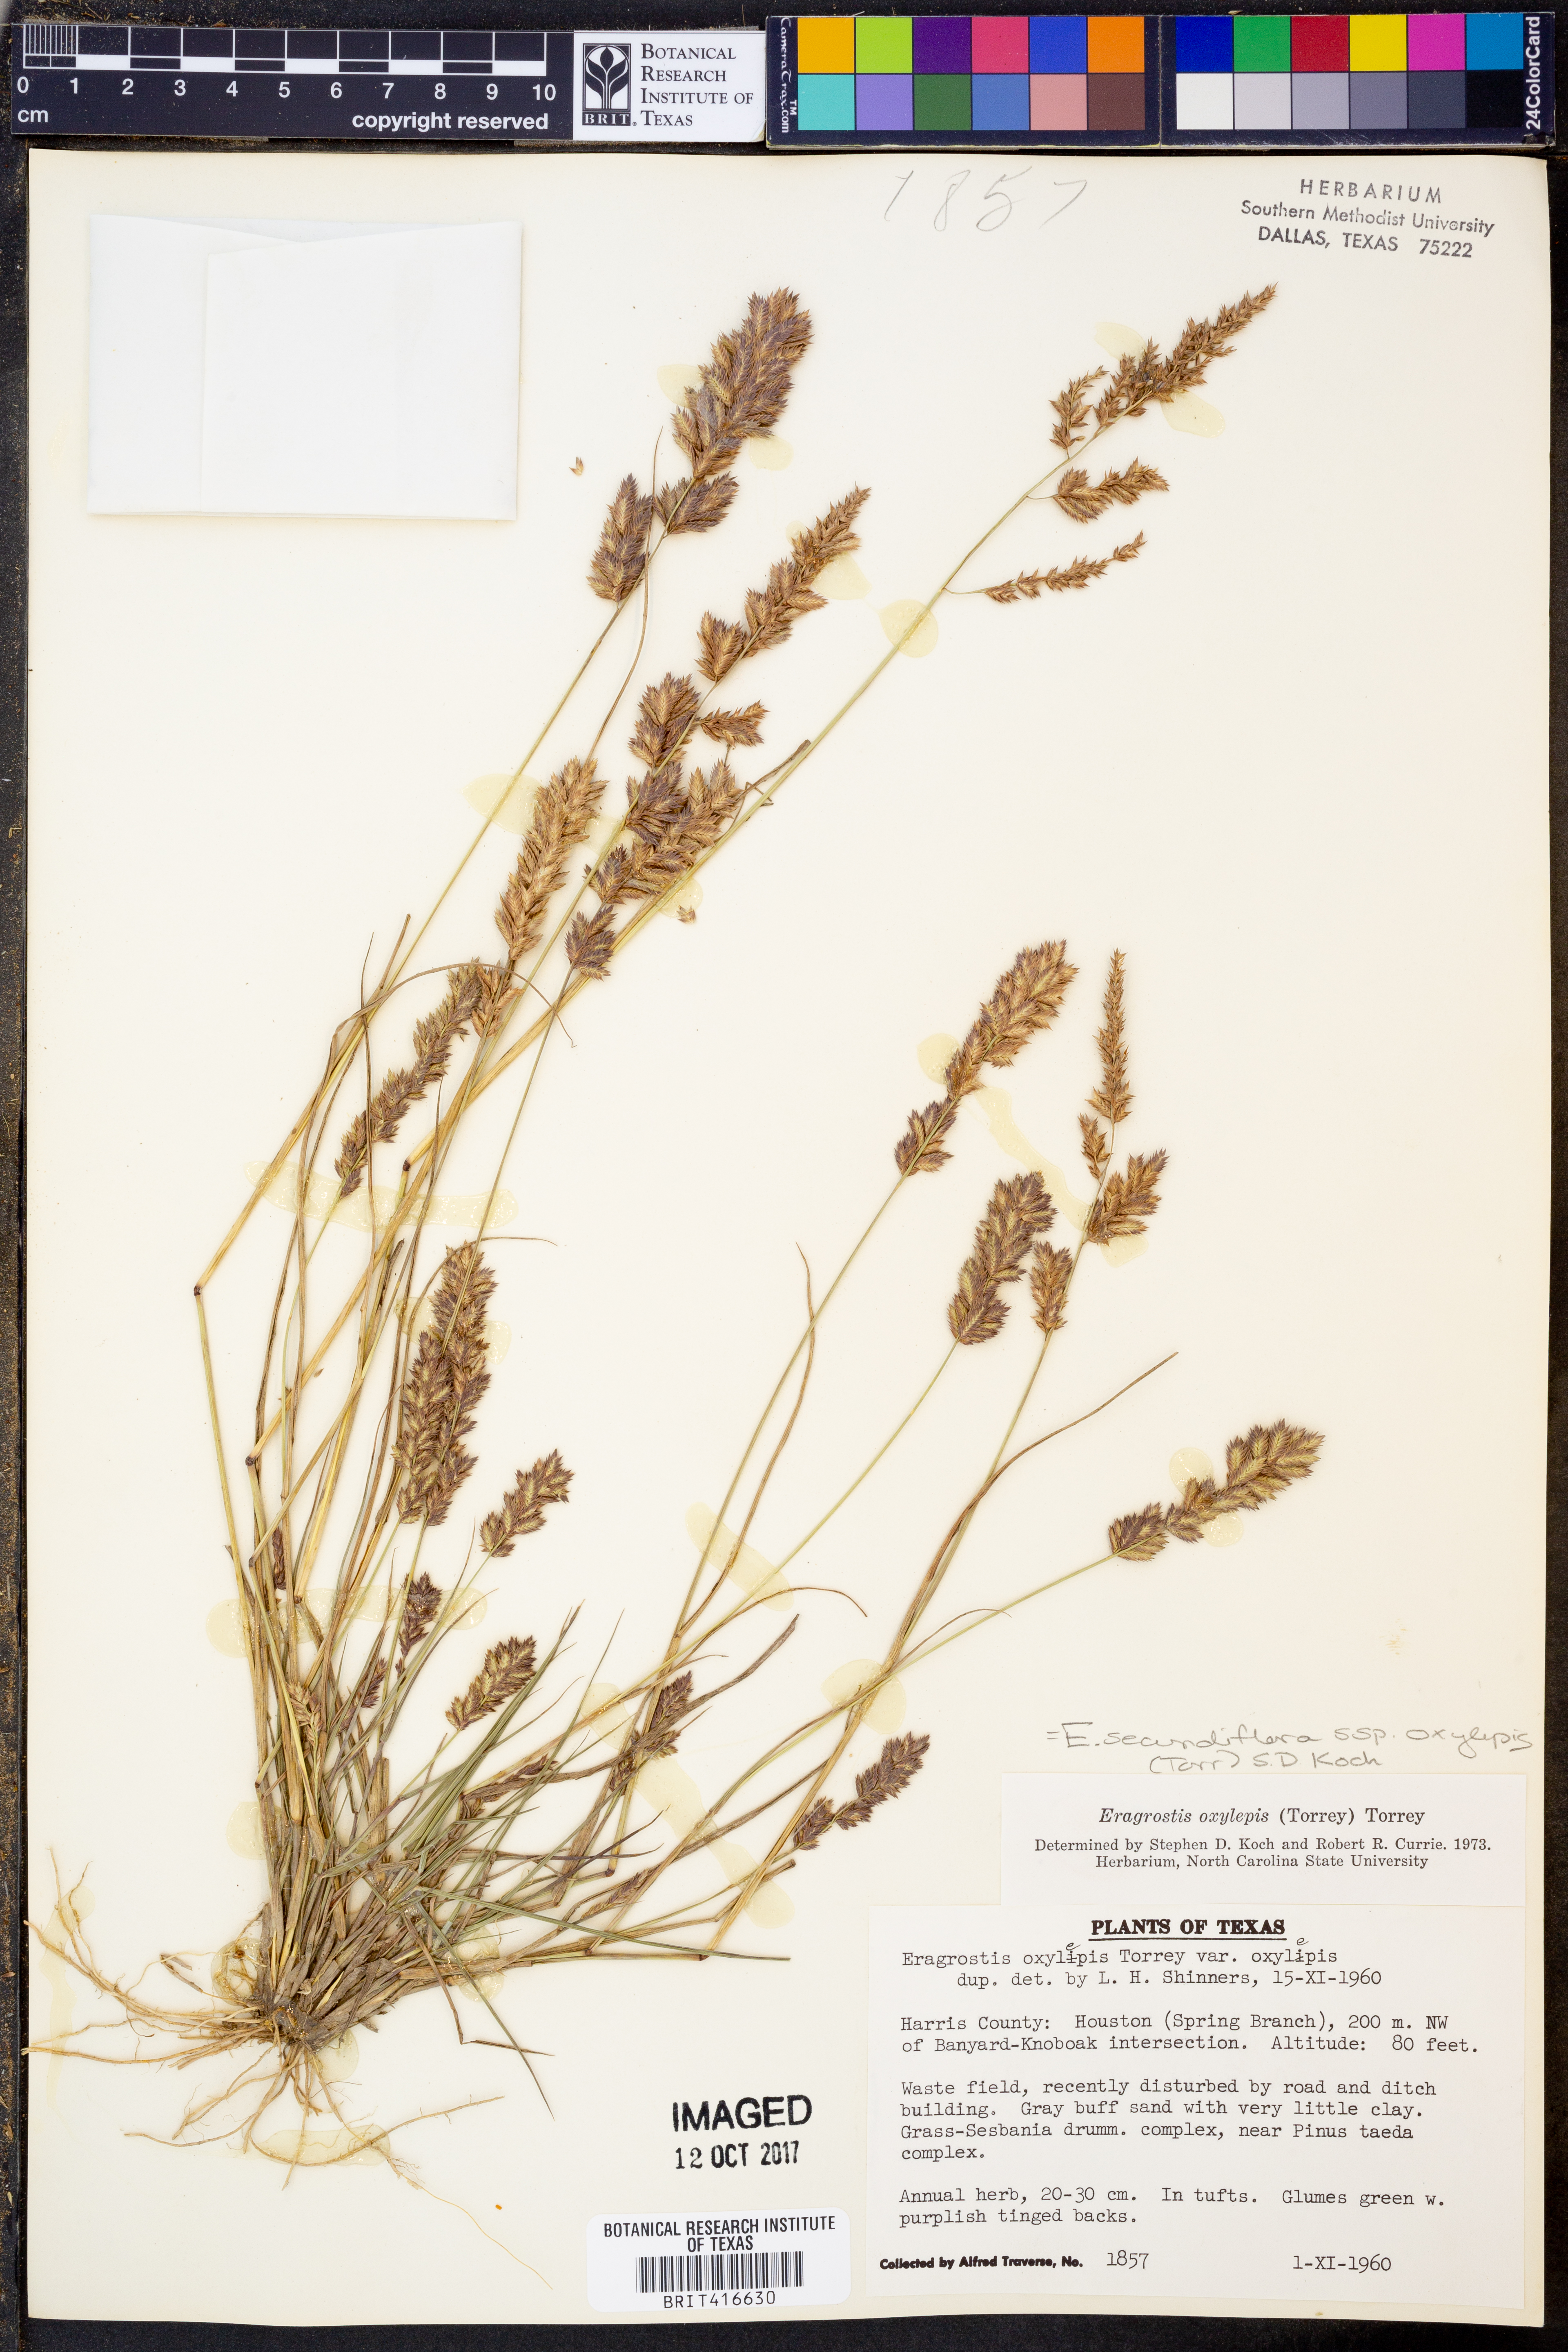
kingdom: Plantae
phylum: Tracheophyta
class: Liliopsida
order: Poales
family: Poaceae
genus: Eragrostis
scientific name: Eragrostis secundiflora
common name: Red love grass
